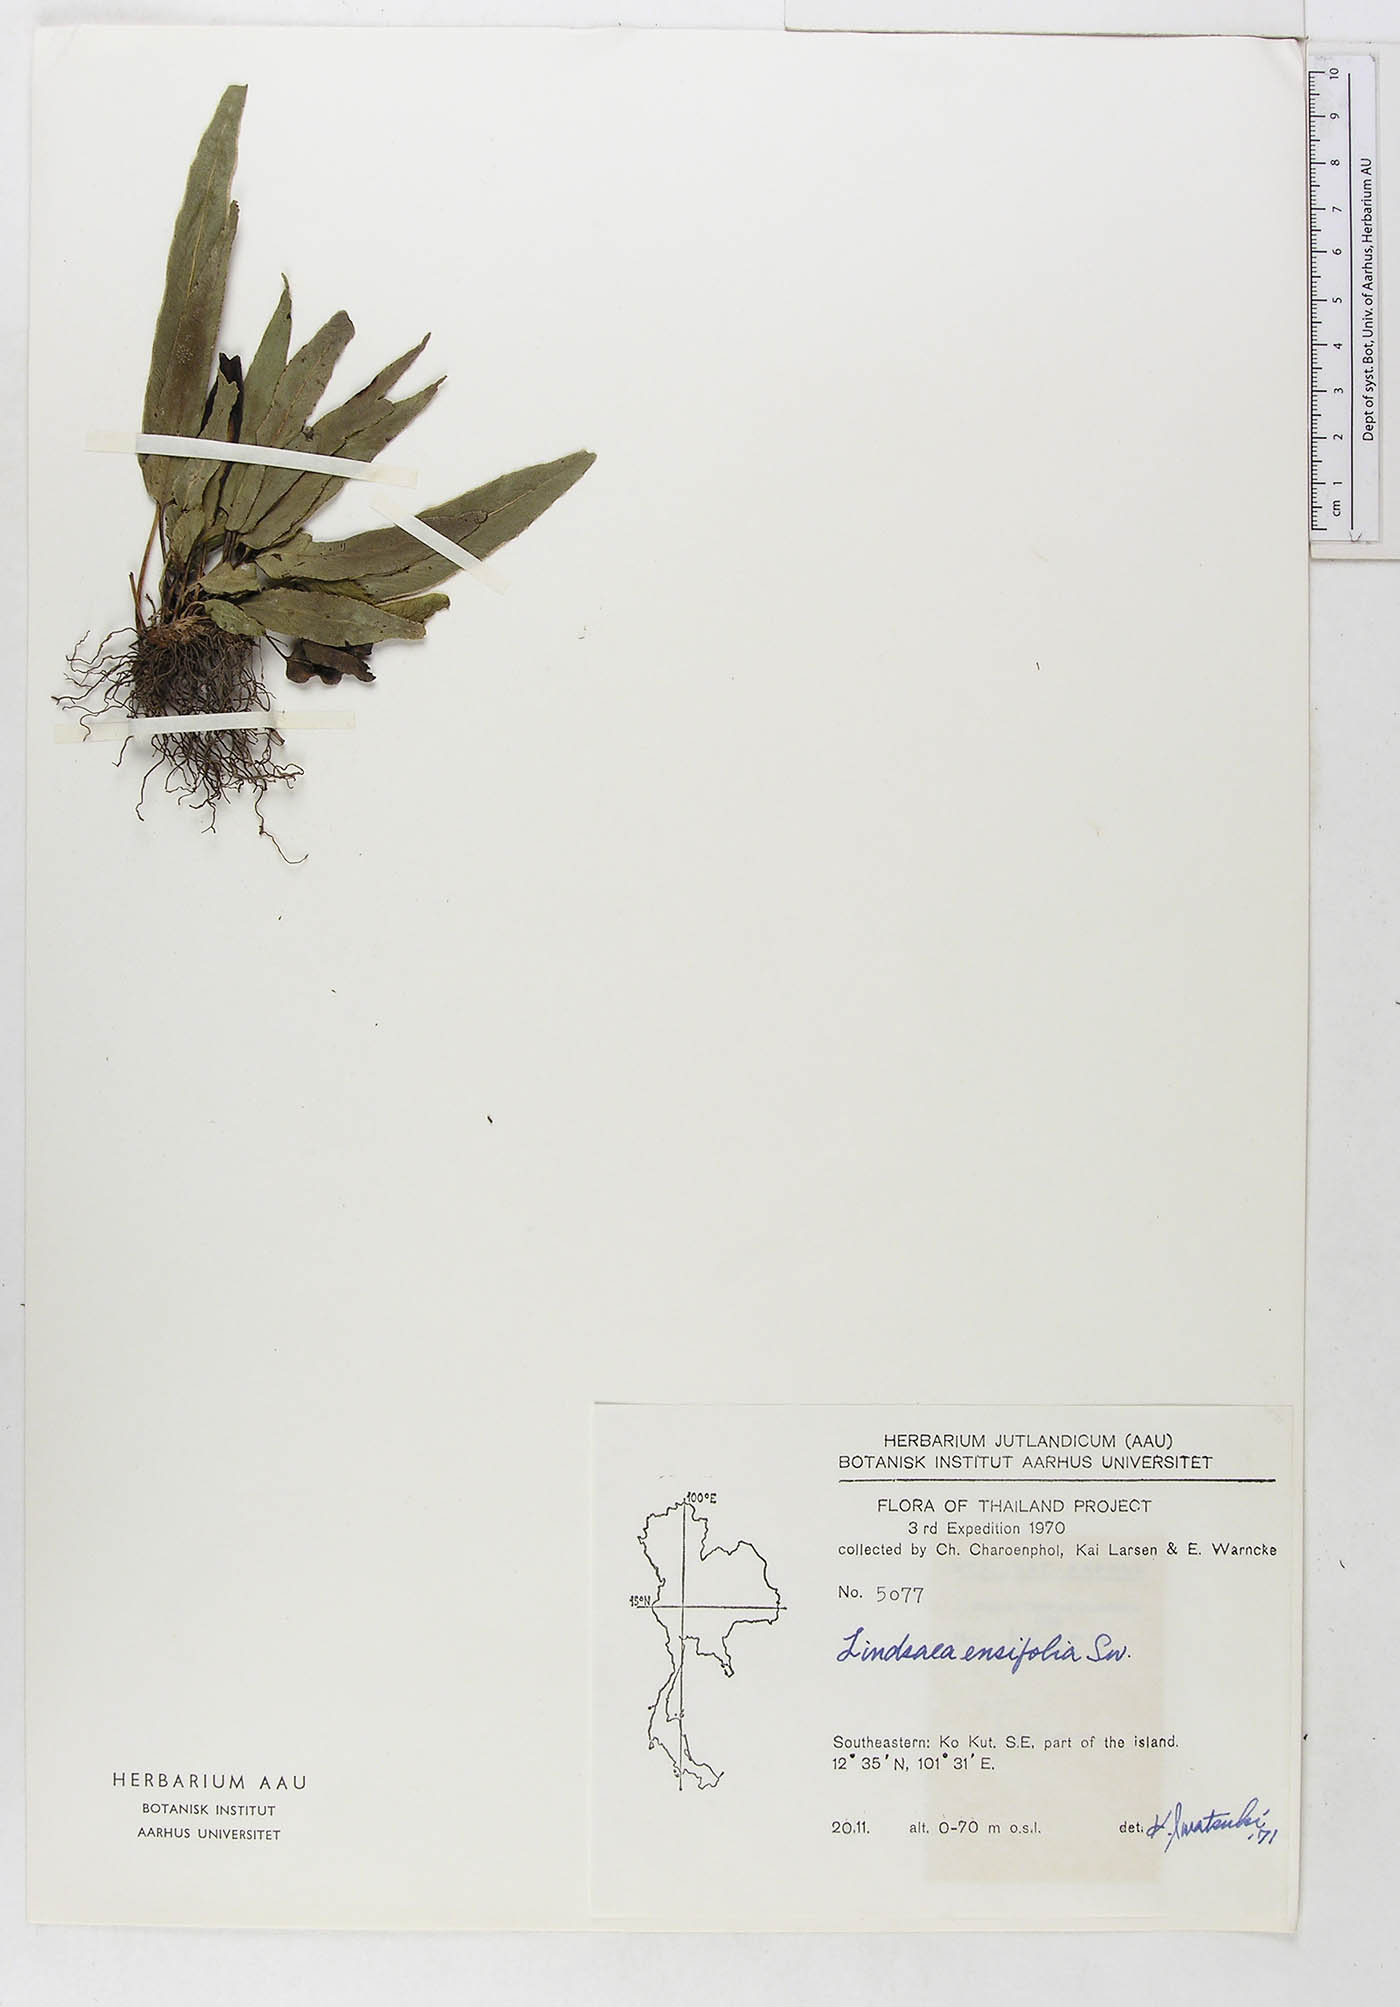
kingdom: Plantae
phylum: Tracheophyta
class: Polypodiopsida
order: Polypodiales
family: Lindsaeaceae
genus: Lindsaea
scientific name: Lindsaea ensifolia
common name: Graceful necklace fern
